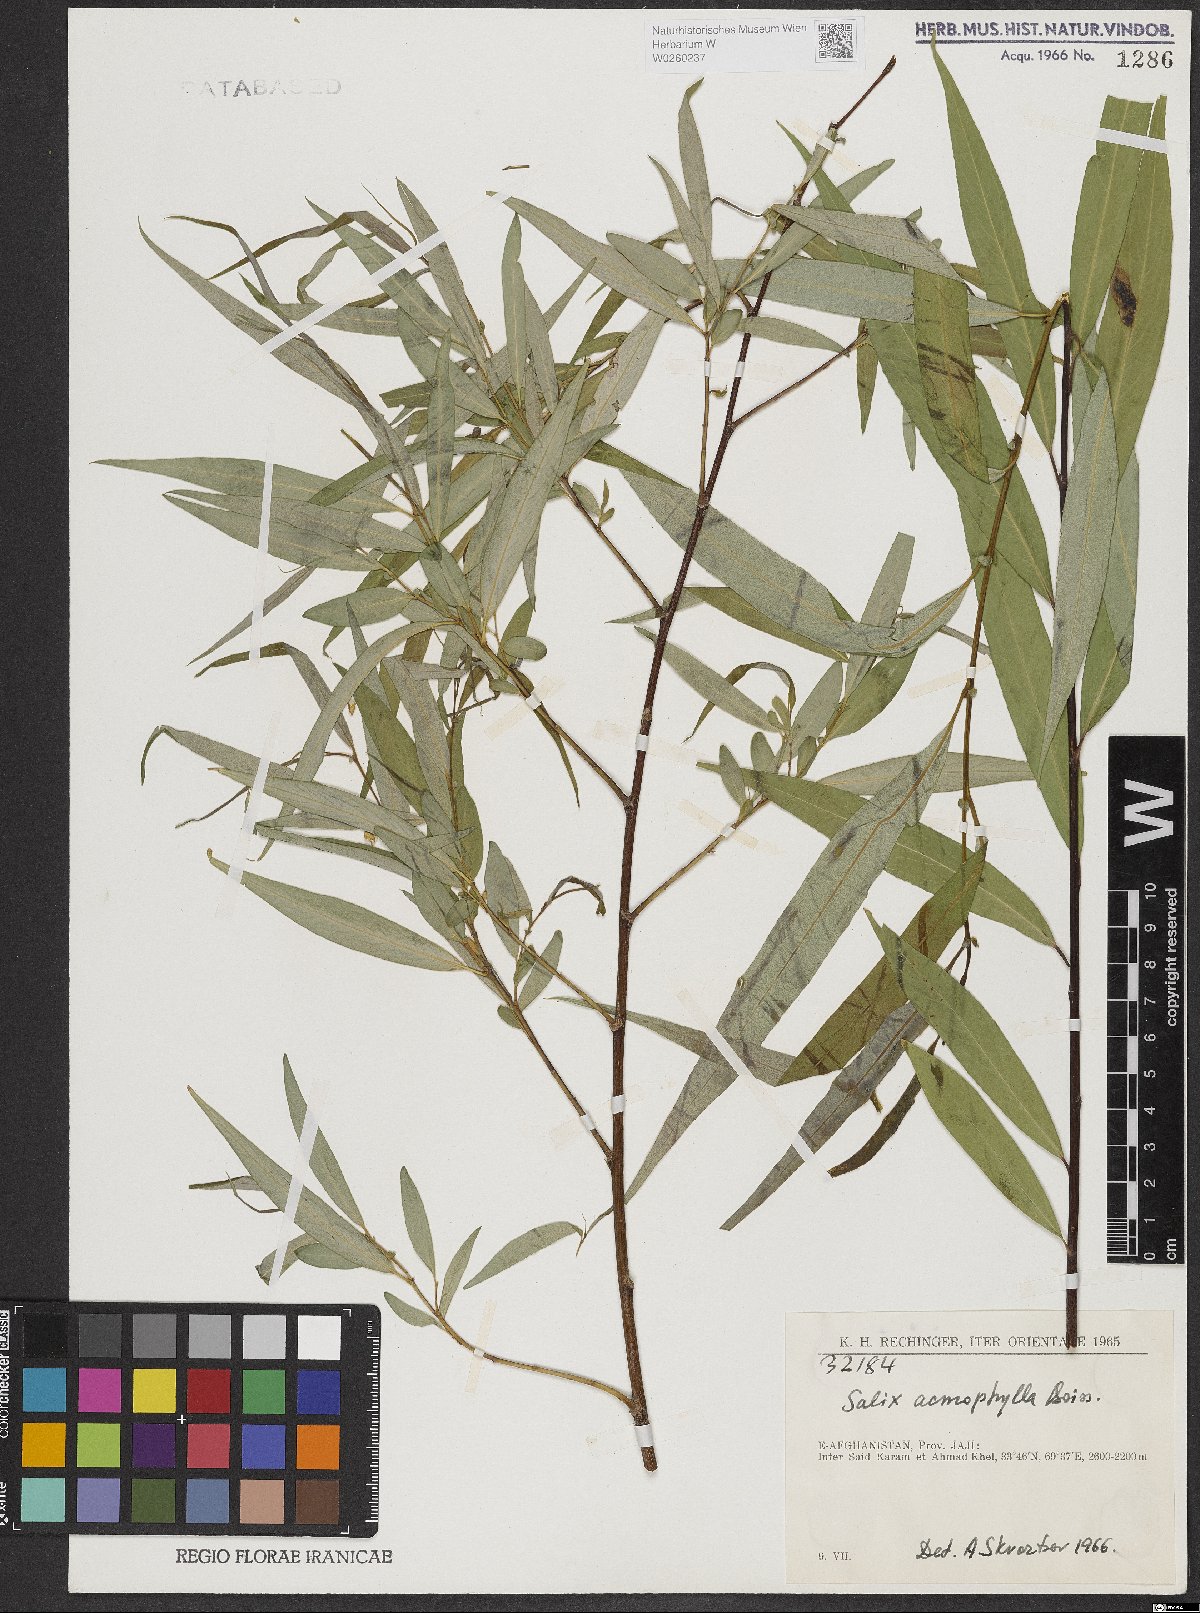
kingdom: Plantae
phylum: Tracheophyta
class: Magnoliopsida
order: Malpighiales
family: Salicaceae
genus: Salix
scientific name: Salix acmophylla
